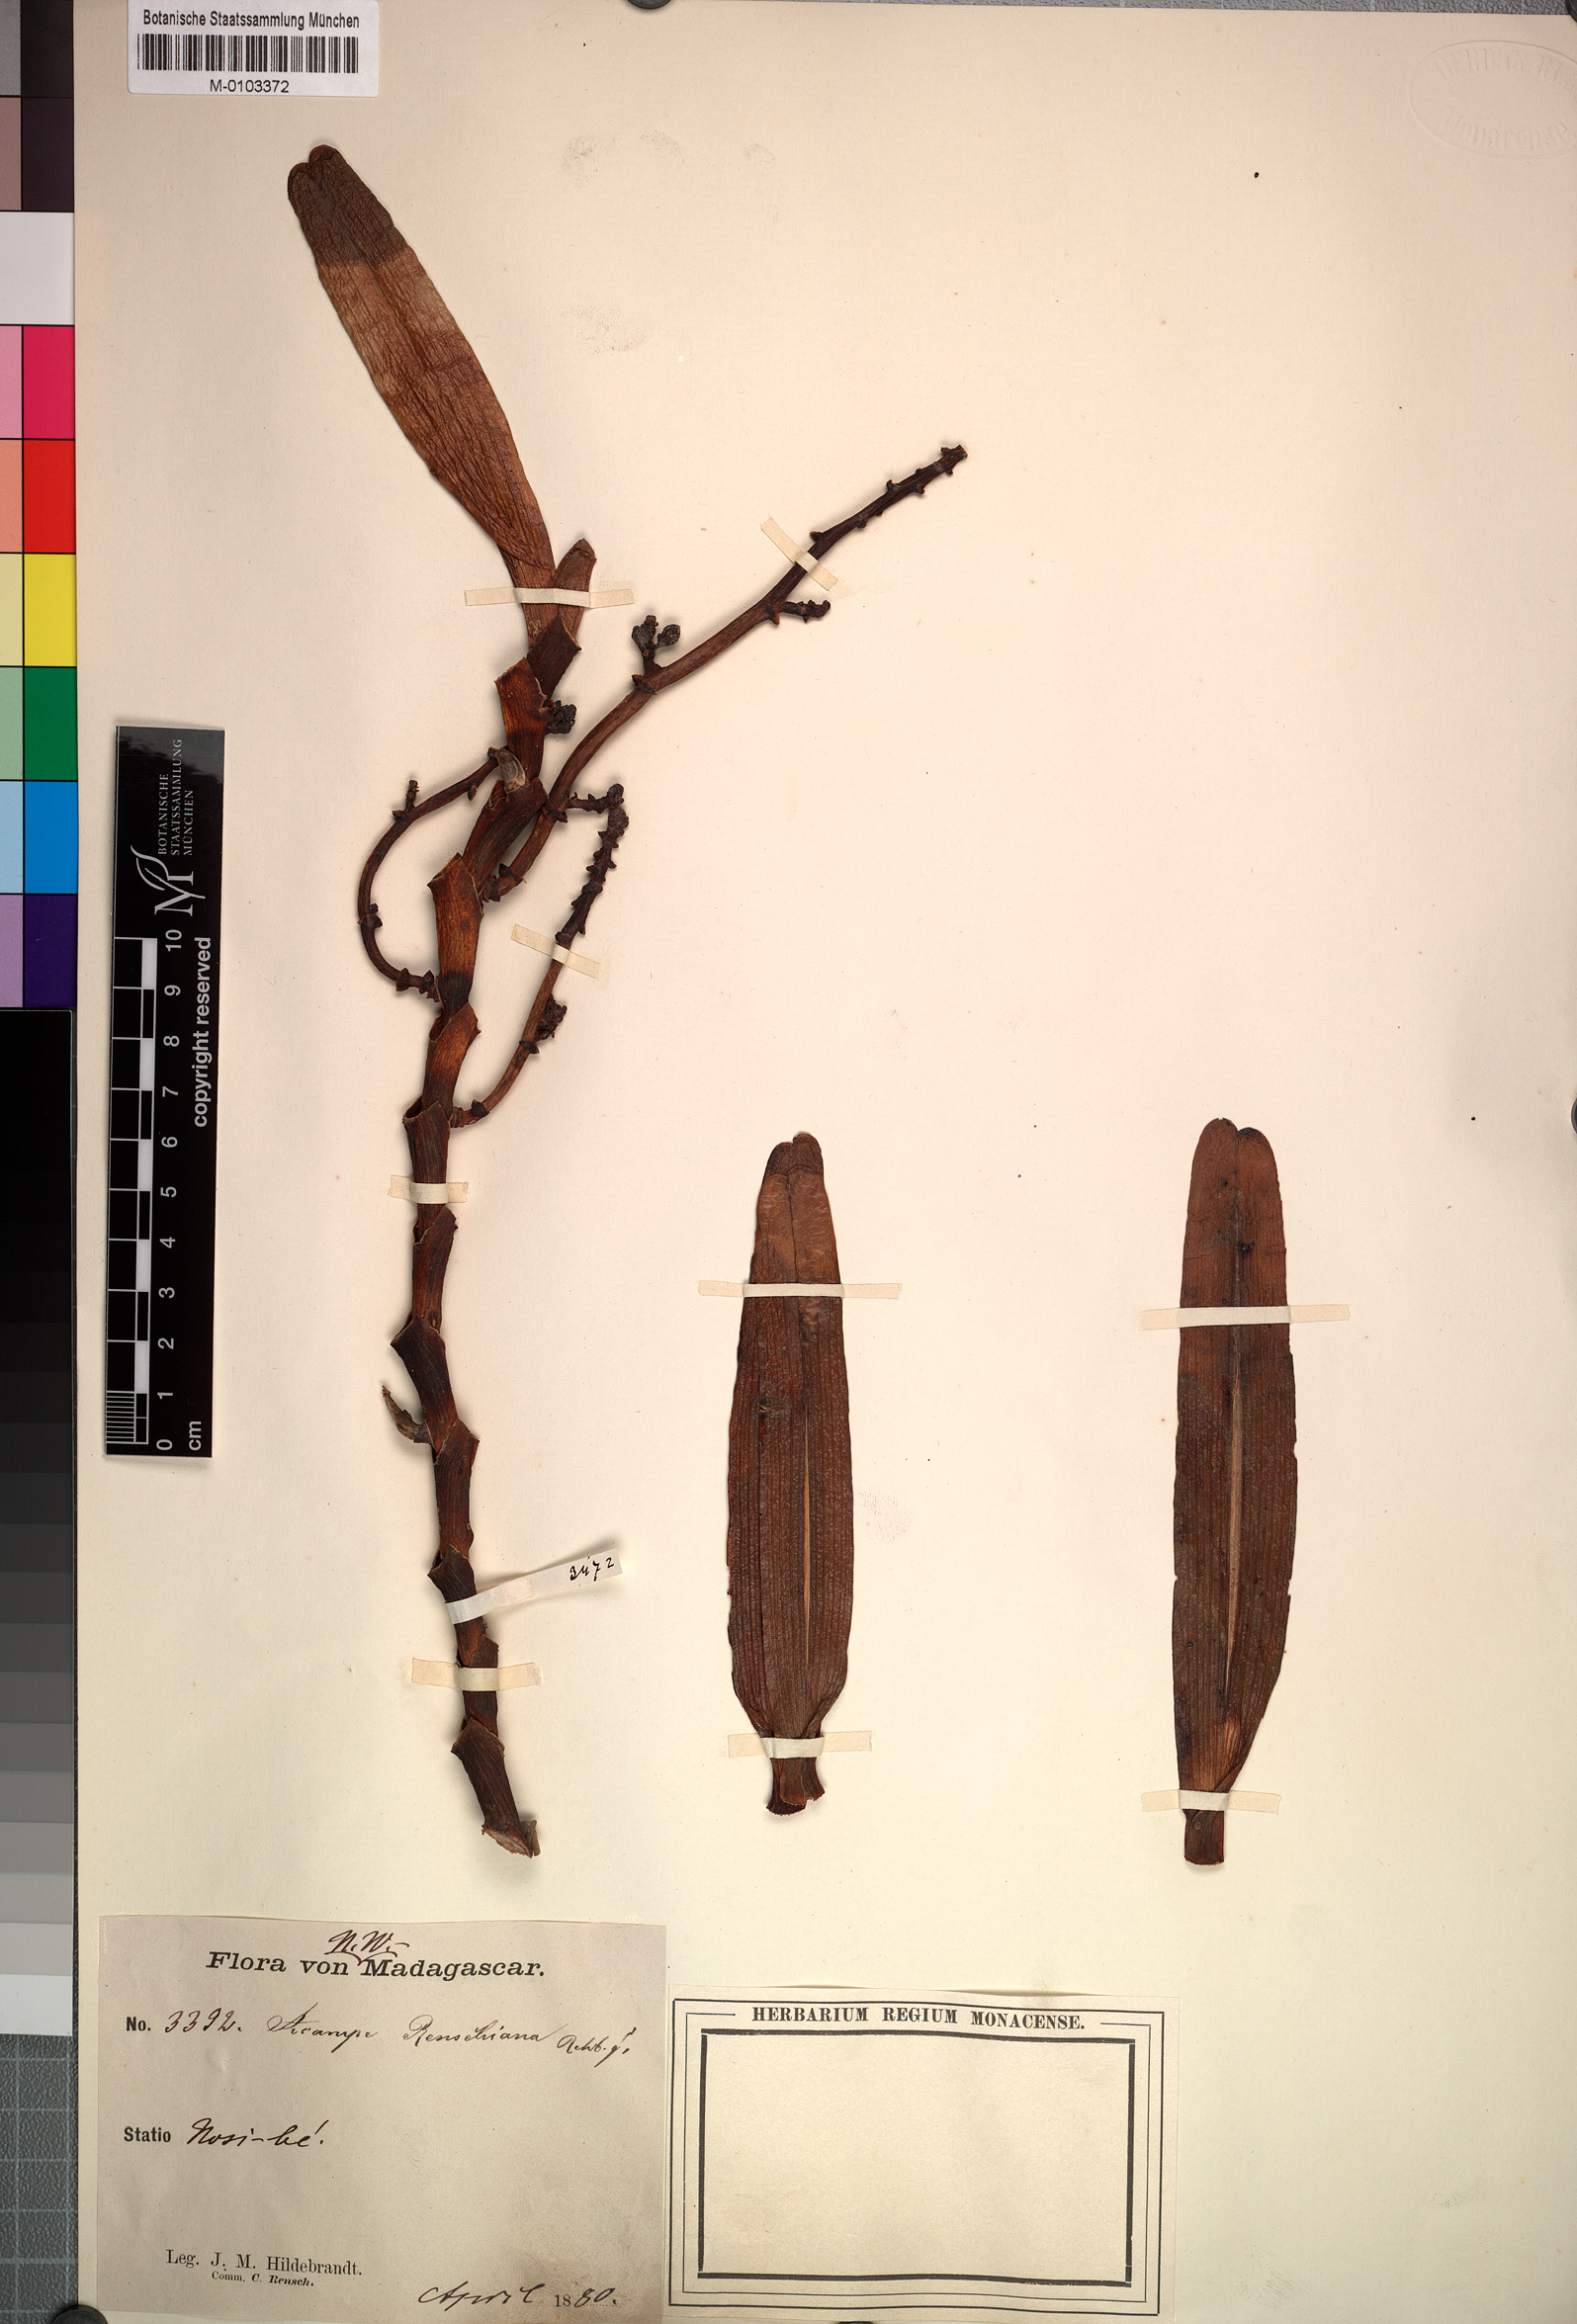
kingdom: Plantae
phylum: Tracheophyta
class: Liliopsida
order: Asparagales
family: Orchidaceae
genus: Acampe
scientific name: Acampe pachyglossa
